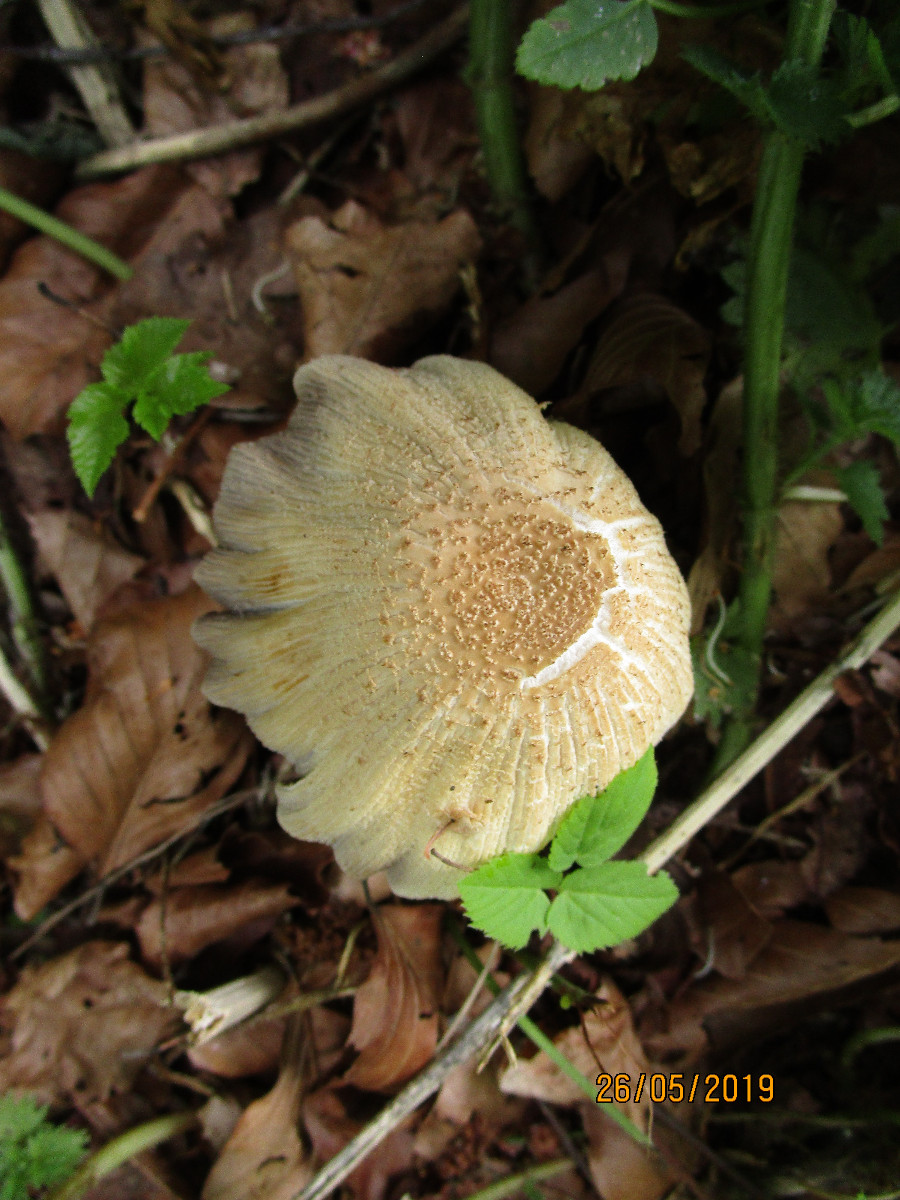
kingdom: Fungi
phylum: Basidiomycota
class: Agaricomycetes
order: Agaricales
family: Psathyrellaceae
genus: Coprinellus
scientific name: Coprinellus
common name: blækhat
